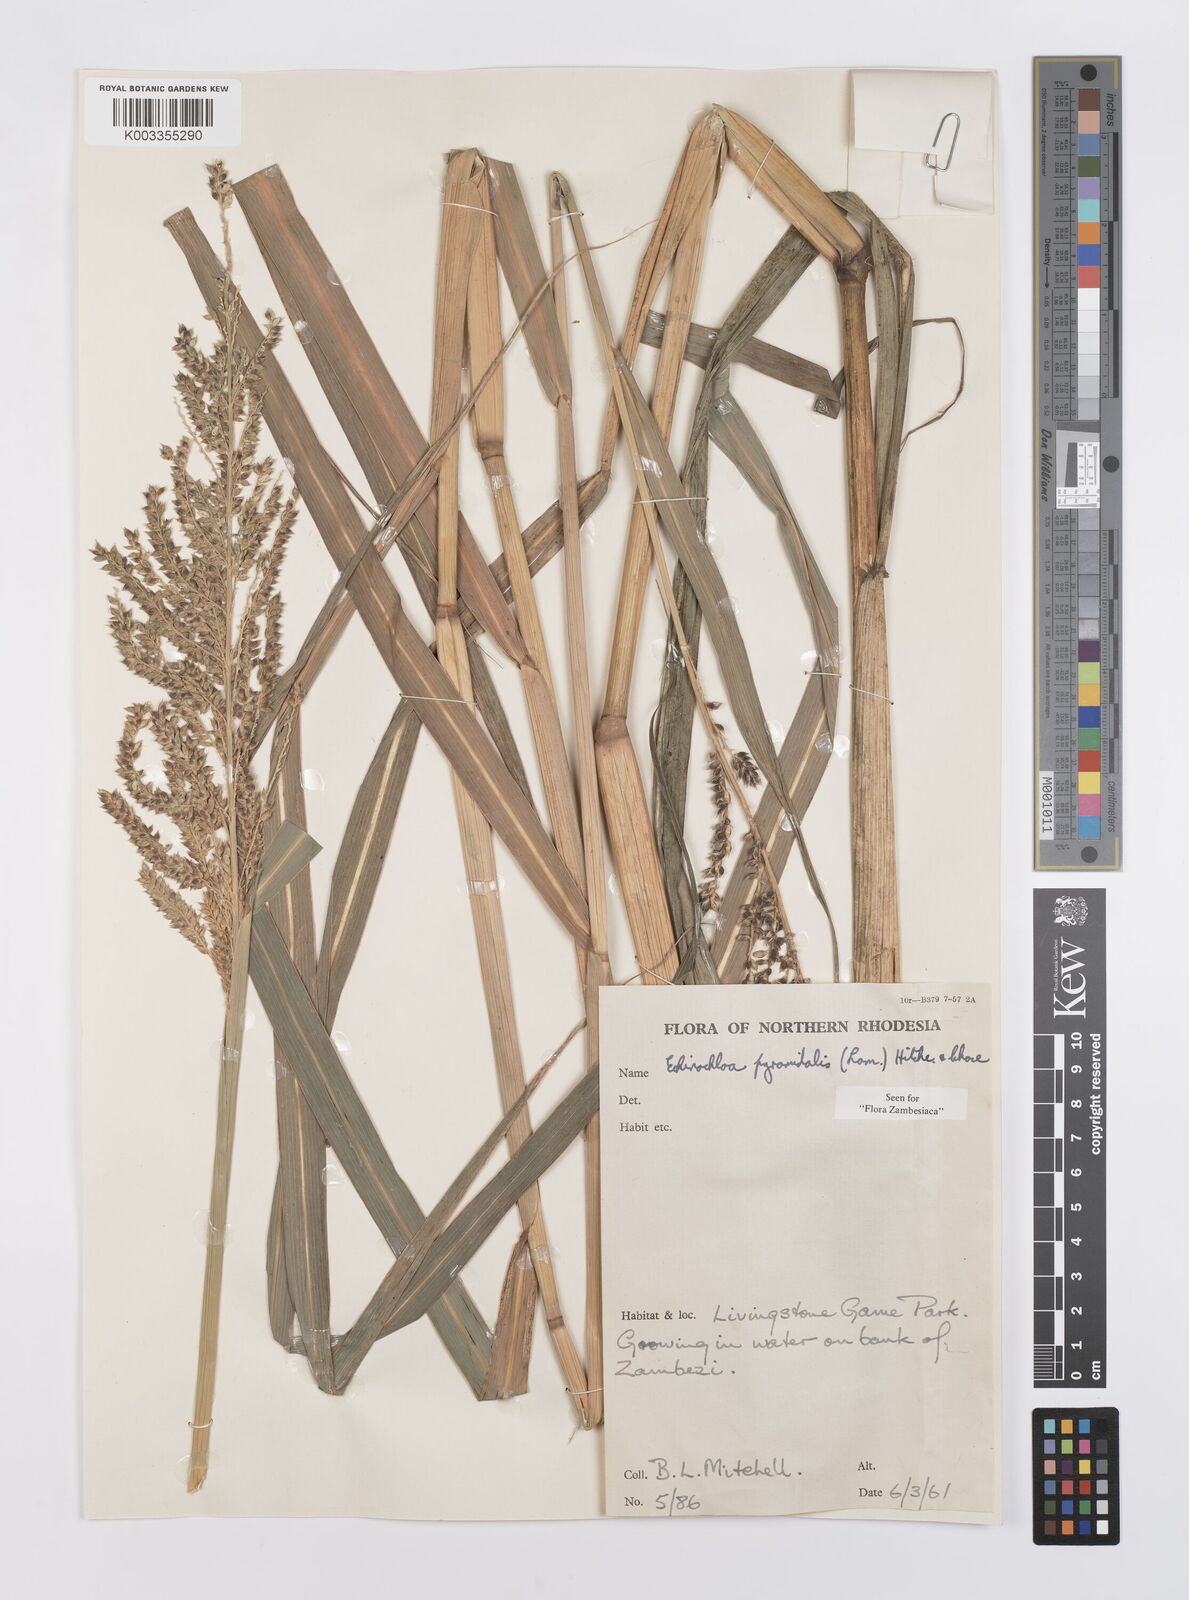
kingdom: Plantae
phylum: Tracheophyta
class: Liliopsida
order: Poales
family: Poaceae
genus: Echinochloa
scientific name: Echinochloa pyramidalis
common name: Antelope grass
